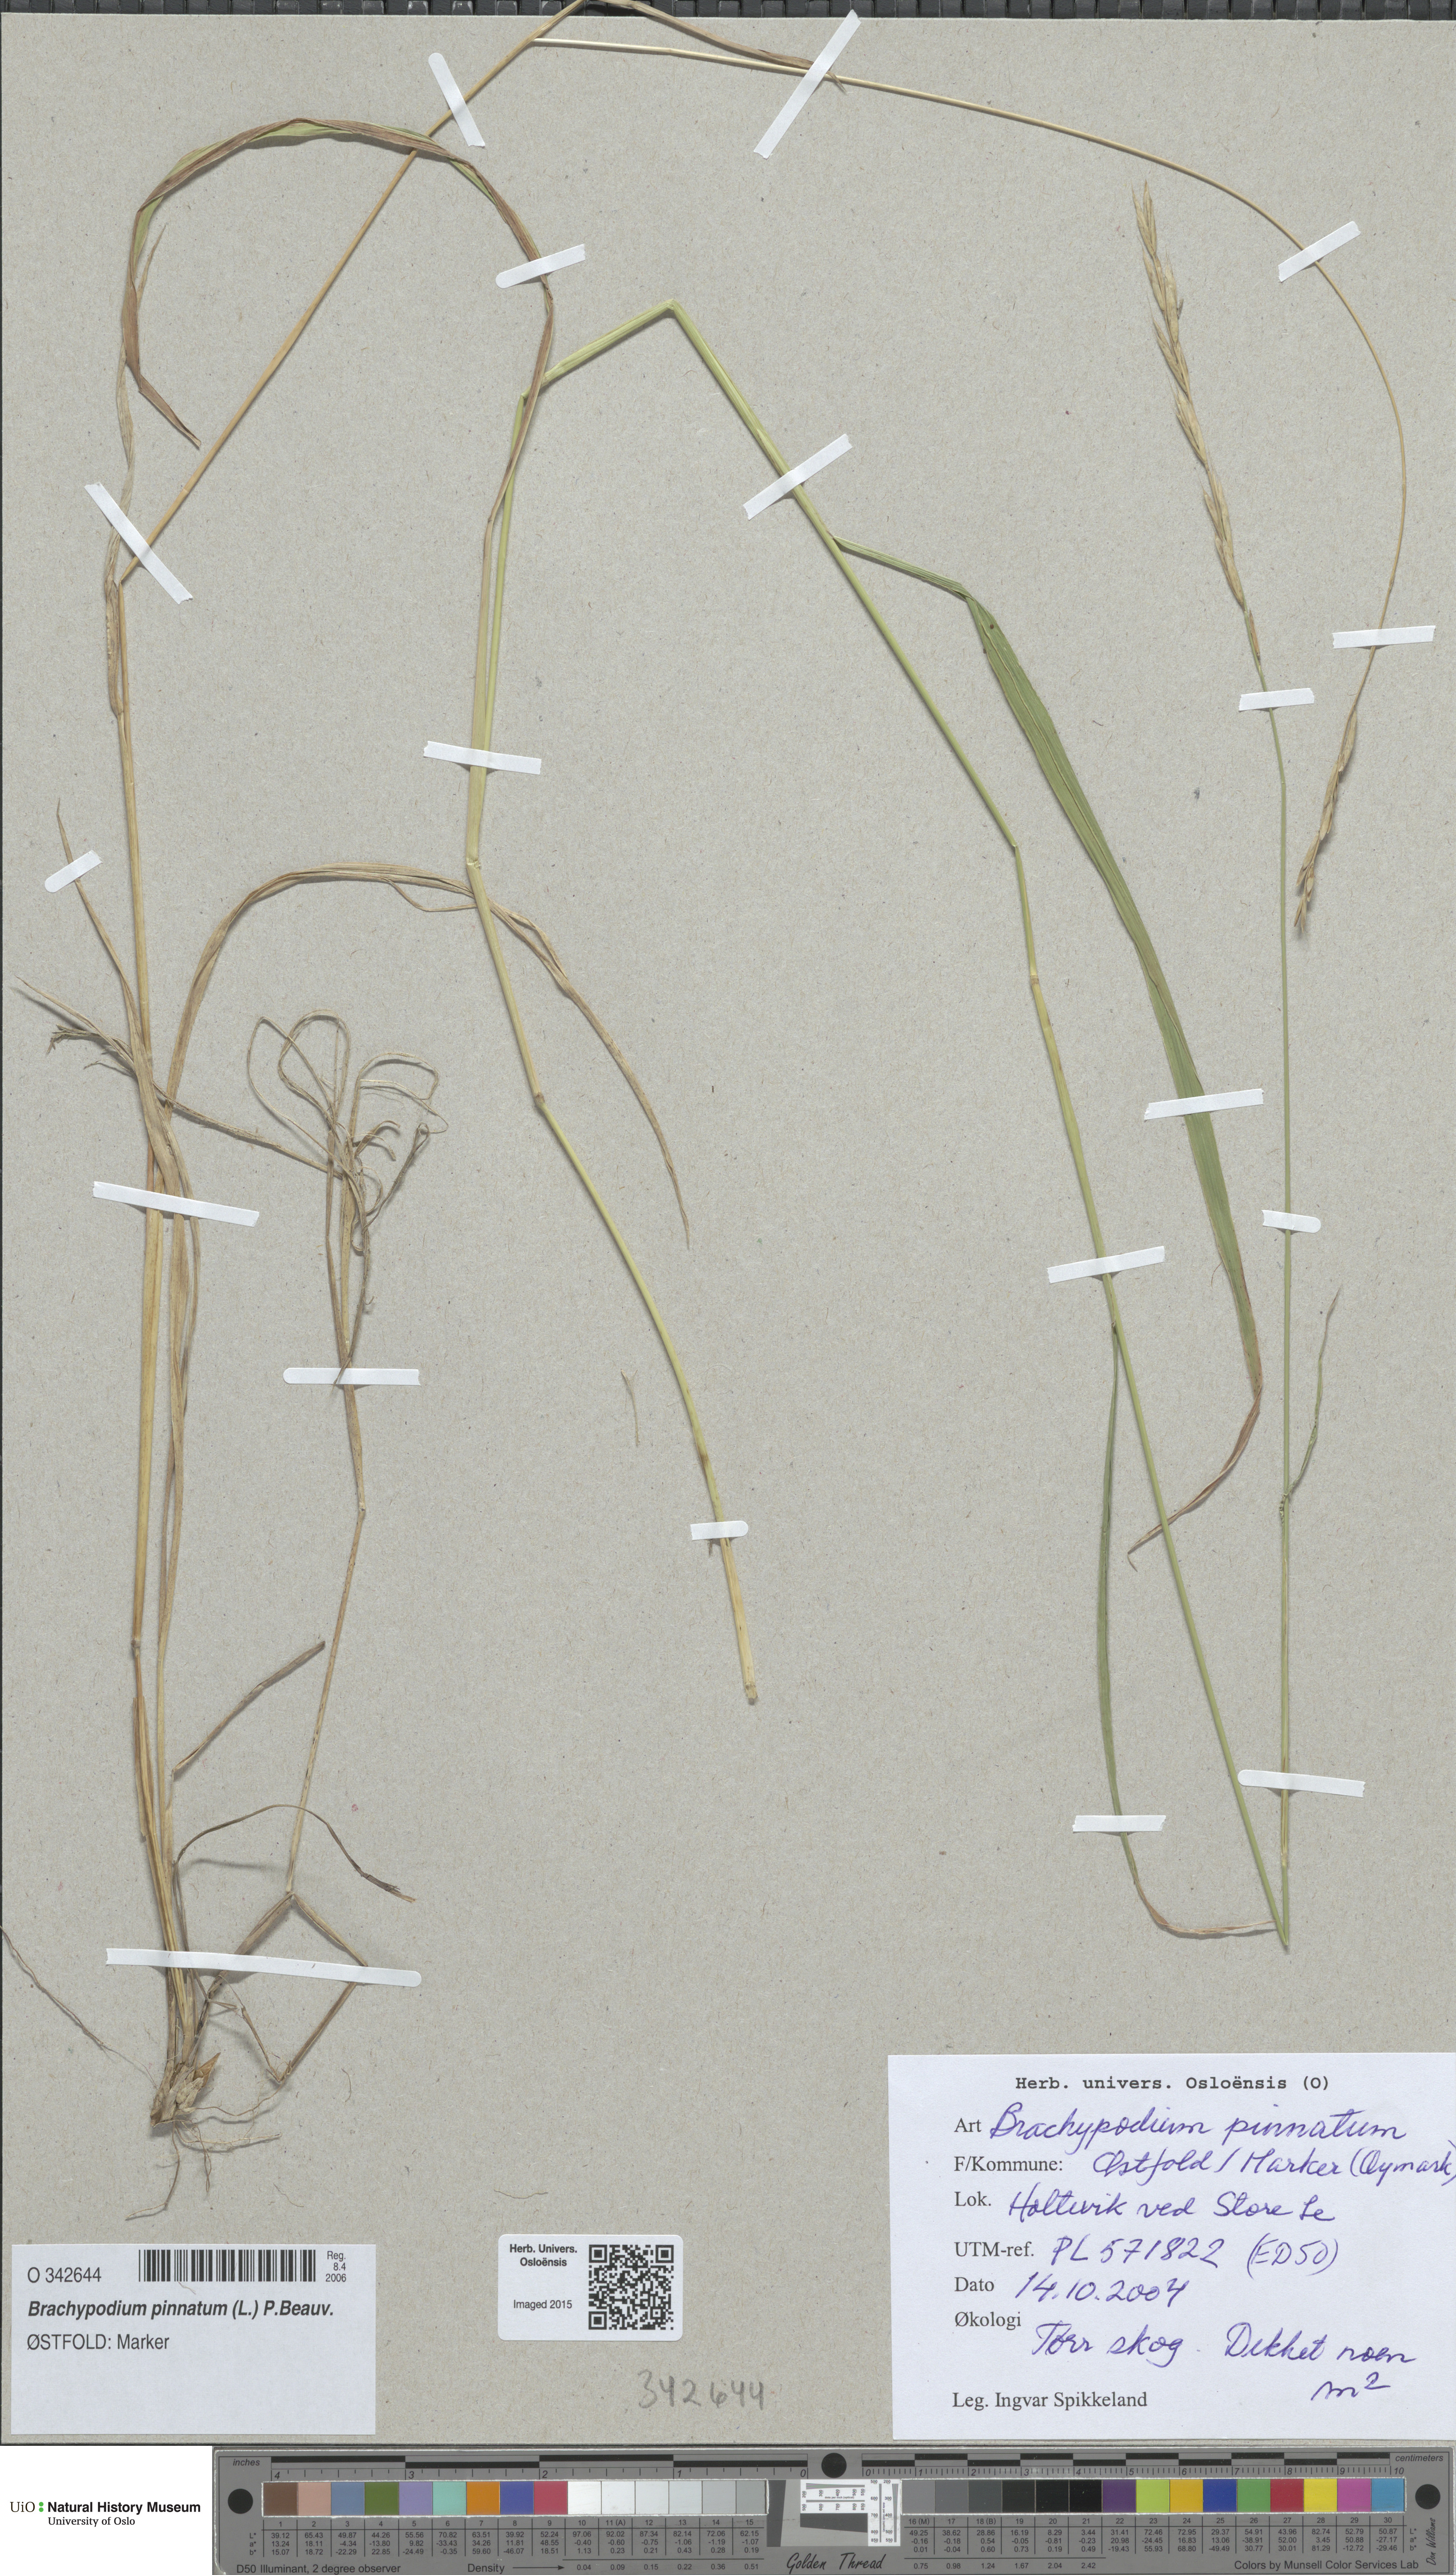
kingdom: Plantae
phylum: Tracheophyta
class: Liliopsida
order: Poales
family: Poaceae
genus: Brachypodium
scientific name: Brachypodium pinnatum
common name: Tor grass
